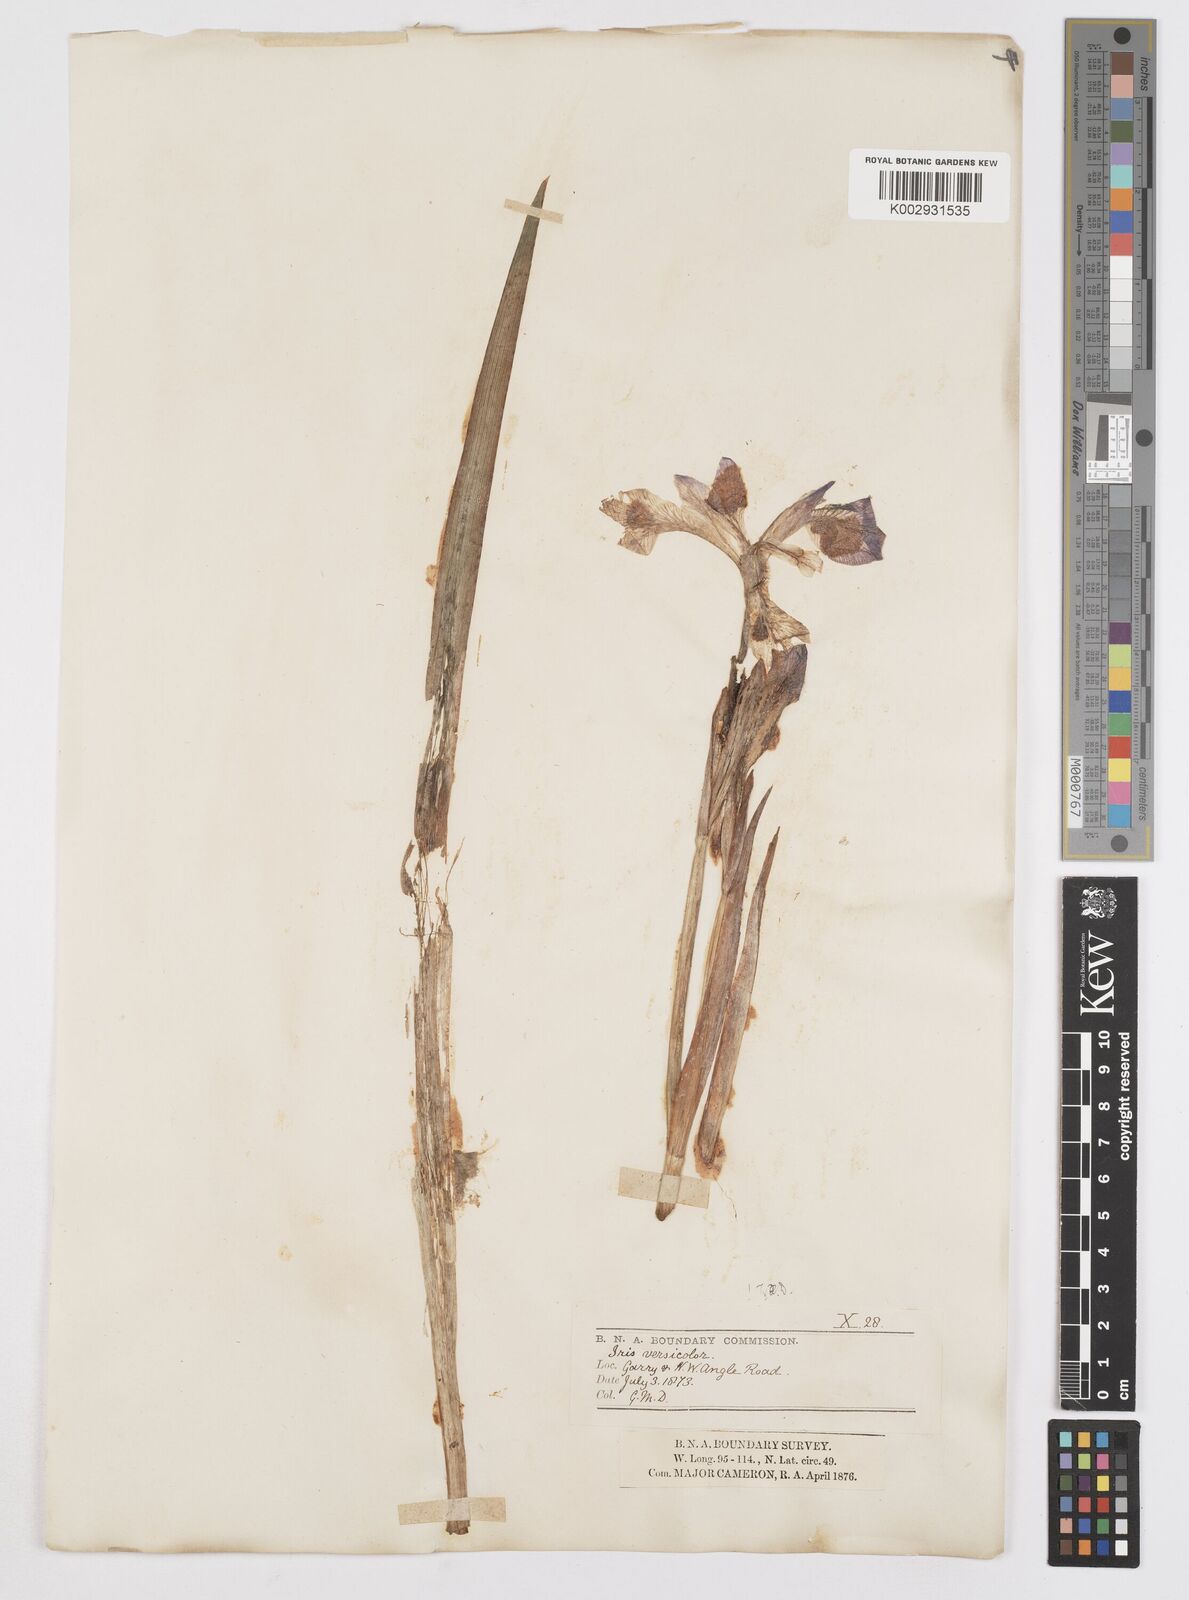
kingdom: Plantae
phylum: Tracheophyta
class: Liliopsida
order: Asparagales
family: Iridaceae
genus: Iris
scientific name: Iris versicolor
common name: Purple iris
